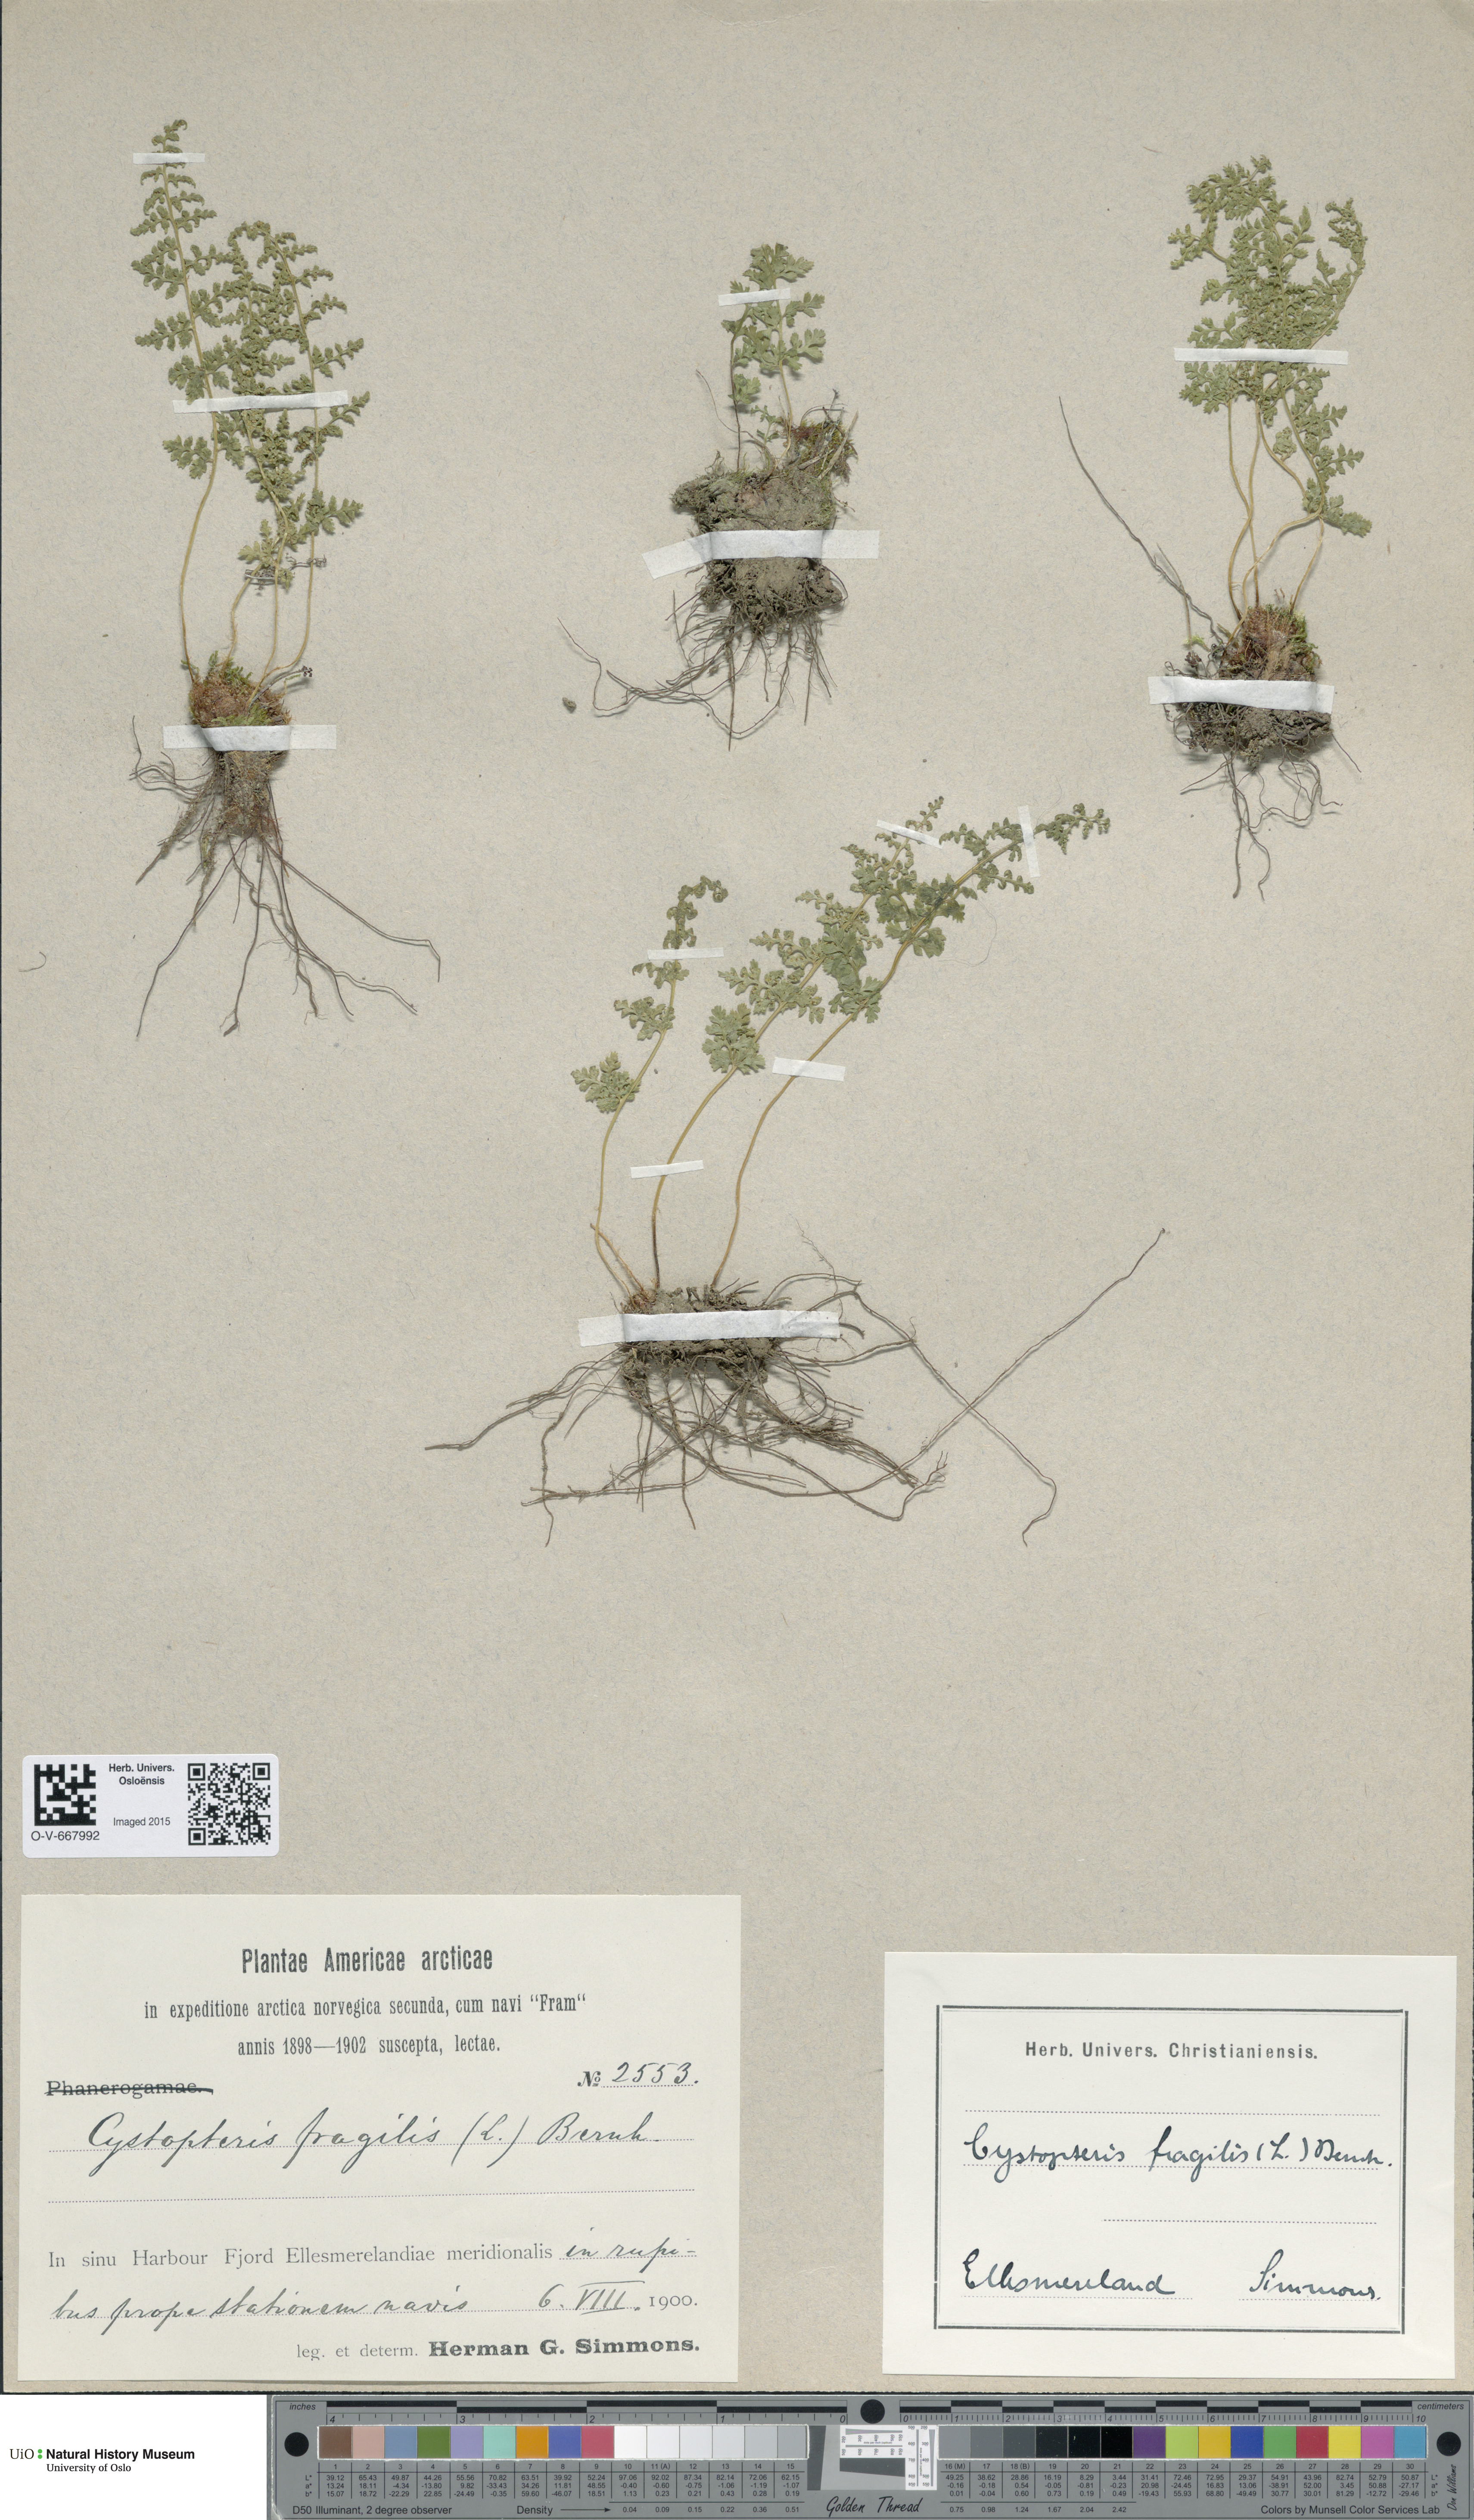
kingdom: Plantae
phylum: Tracheophyta
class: Polypodiopsida
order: Polypodiales
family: Cystopteridaceae
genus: Cystopteris
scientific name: Cystopteris fragilis
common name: Brittle bladder fern
